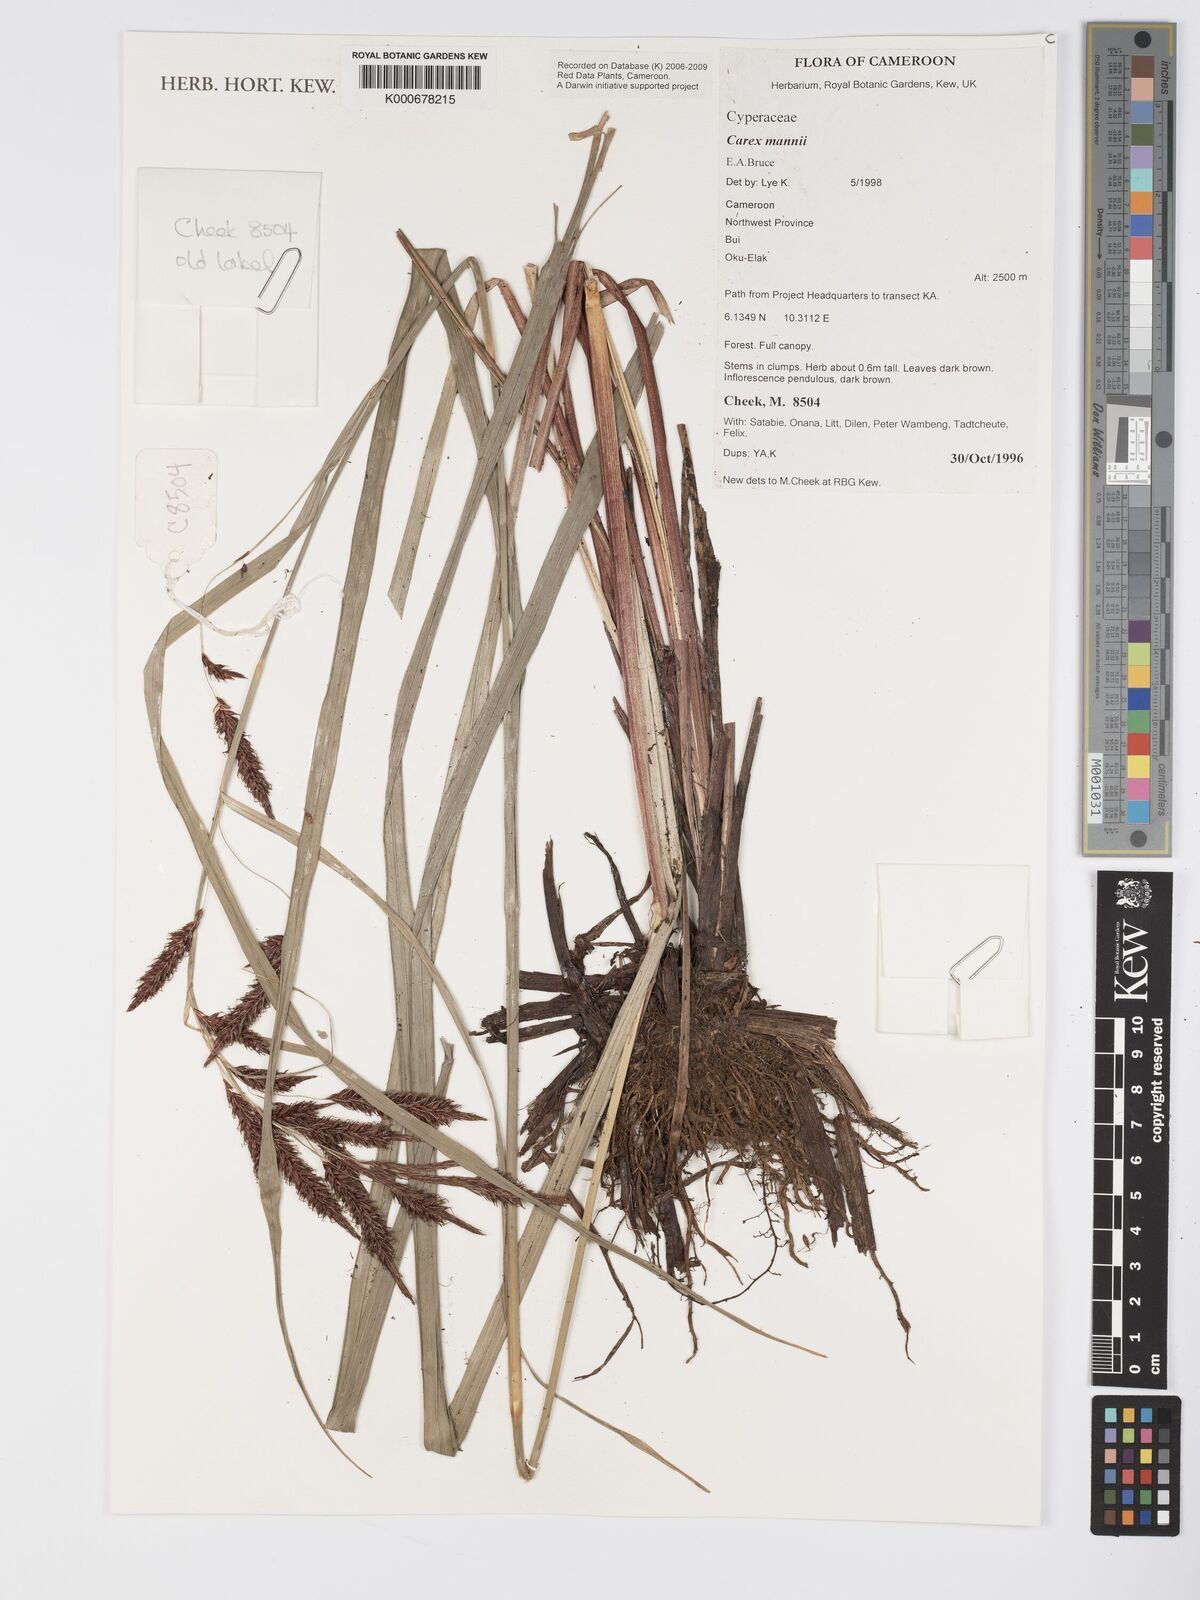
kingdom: Plantae
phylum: Tracheophyta
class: Liliopsida
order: Poales
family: Cyperaceae
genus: Carex
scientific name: Carex mannii
